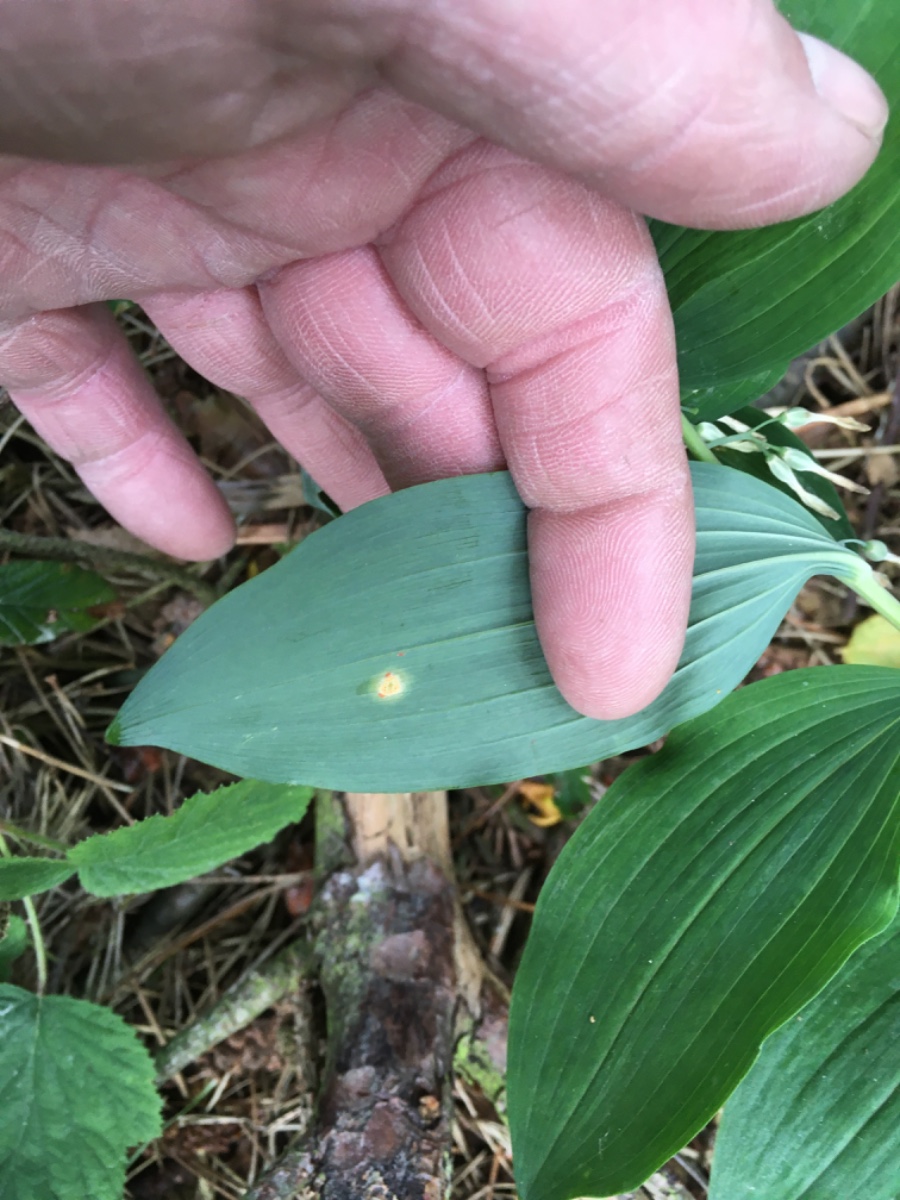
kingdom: Fungi
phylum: Basidiomycota
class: Pucciniomycetes
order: Pucciniales
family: Pucciniaceae
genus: Puccinia
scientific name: Puccinia sessilis
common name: Arum rust
